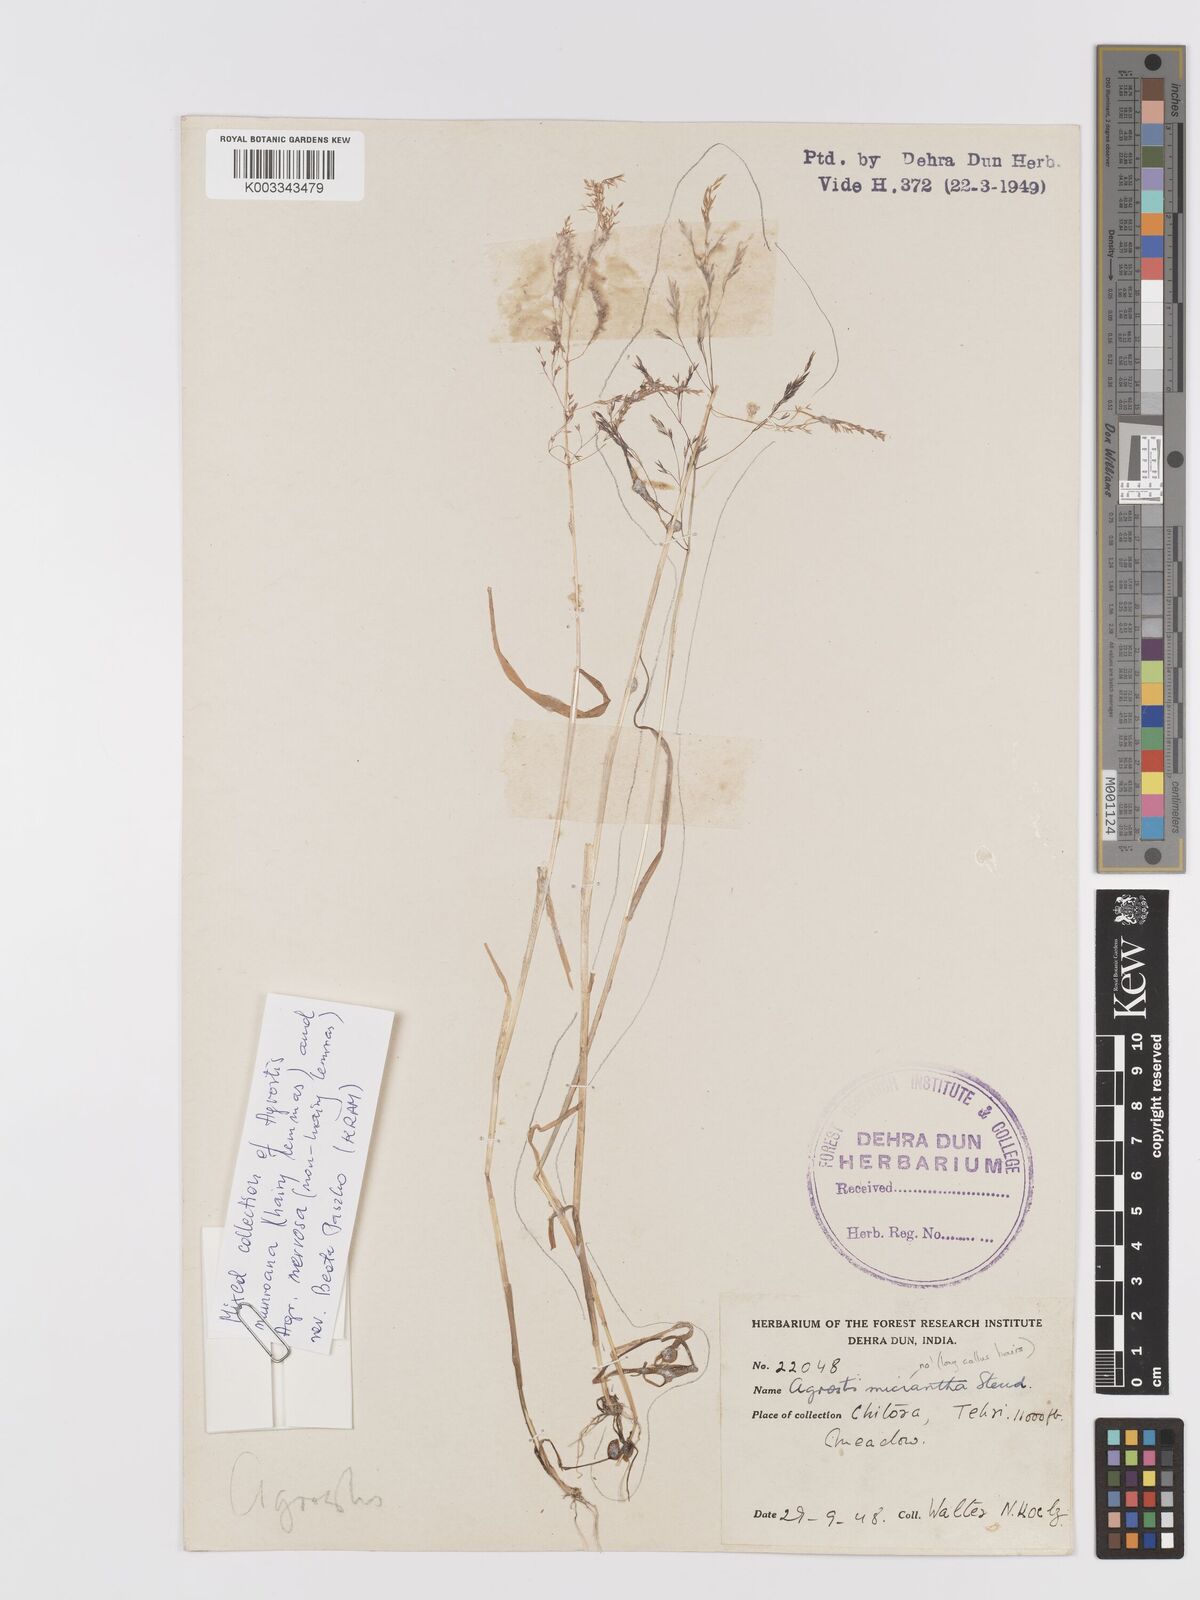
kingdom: Plantae
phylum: Tracheophyta
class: Liliopsida
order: Poales
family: Poaceae
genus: Agrostis
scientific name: Agrostis gigantea
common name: Black bent
